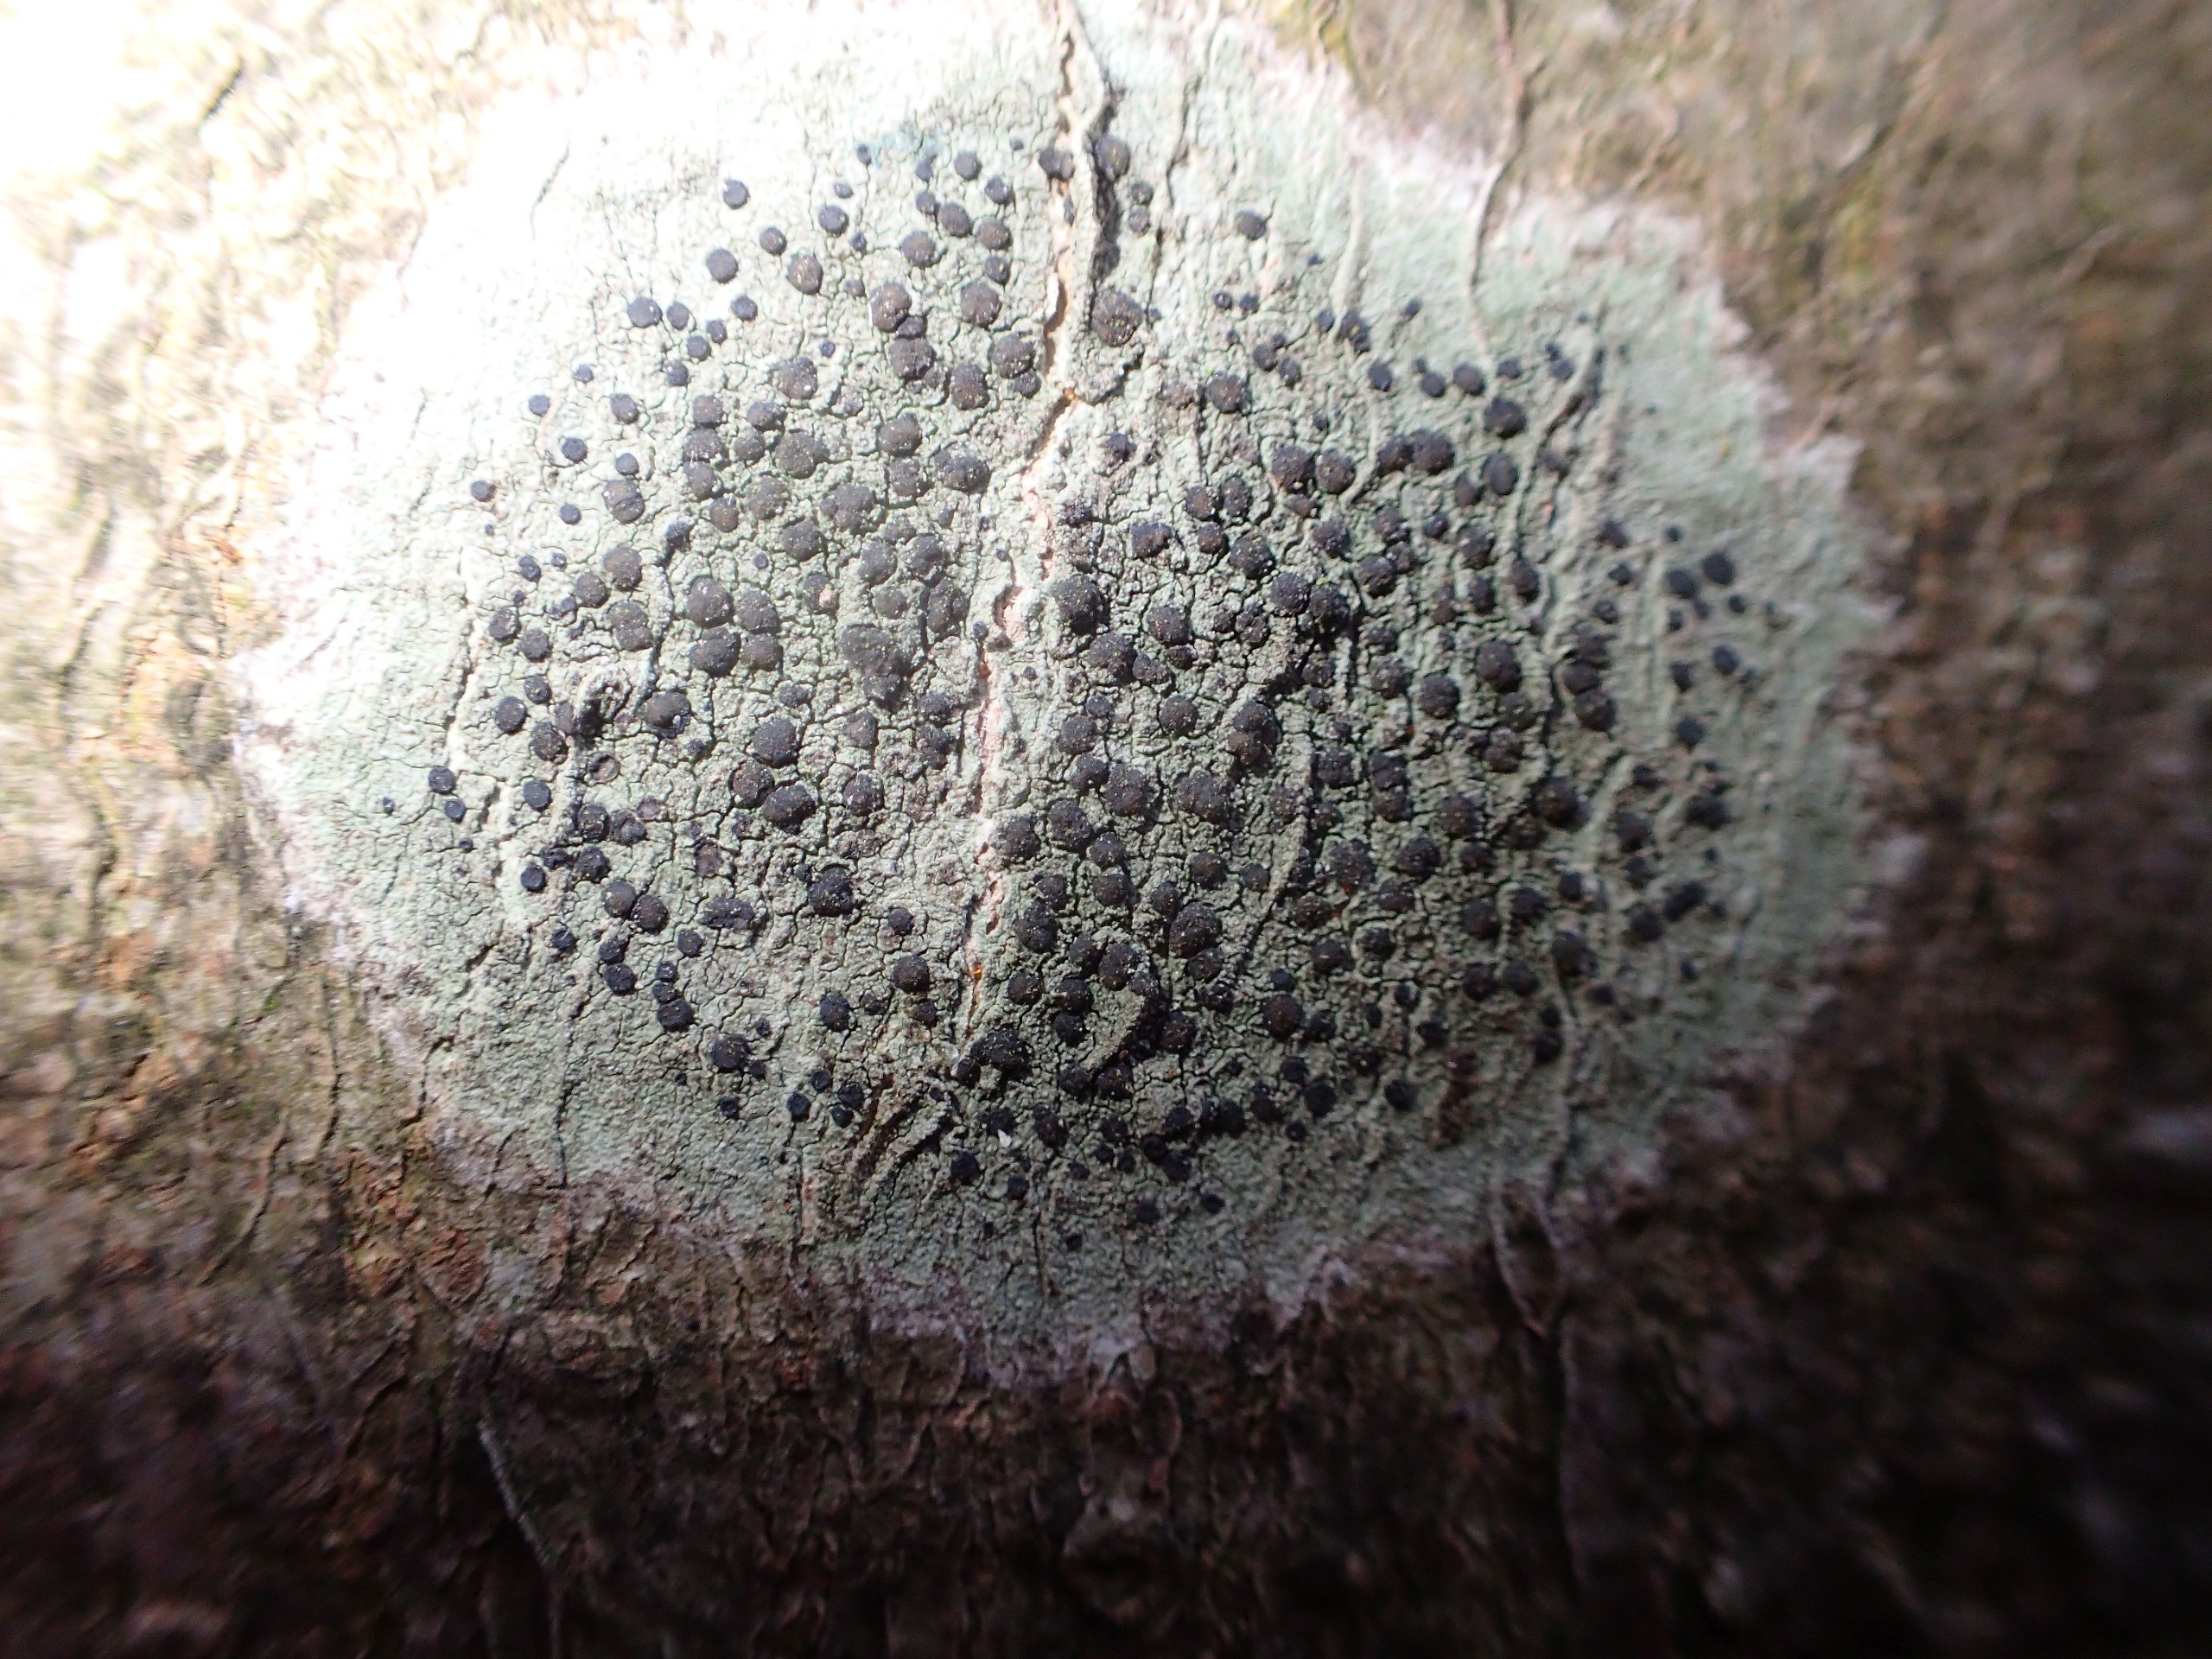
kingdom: Fungi
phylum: Ascomycota
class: Lecanoromycetes
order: Lecanorales
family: Lecanoraceae
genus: Lecidella
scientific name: Lecidella elaeochroma
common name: Grågrøn skivelav
